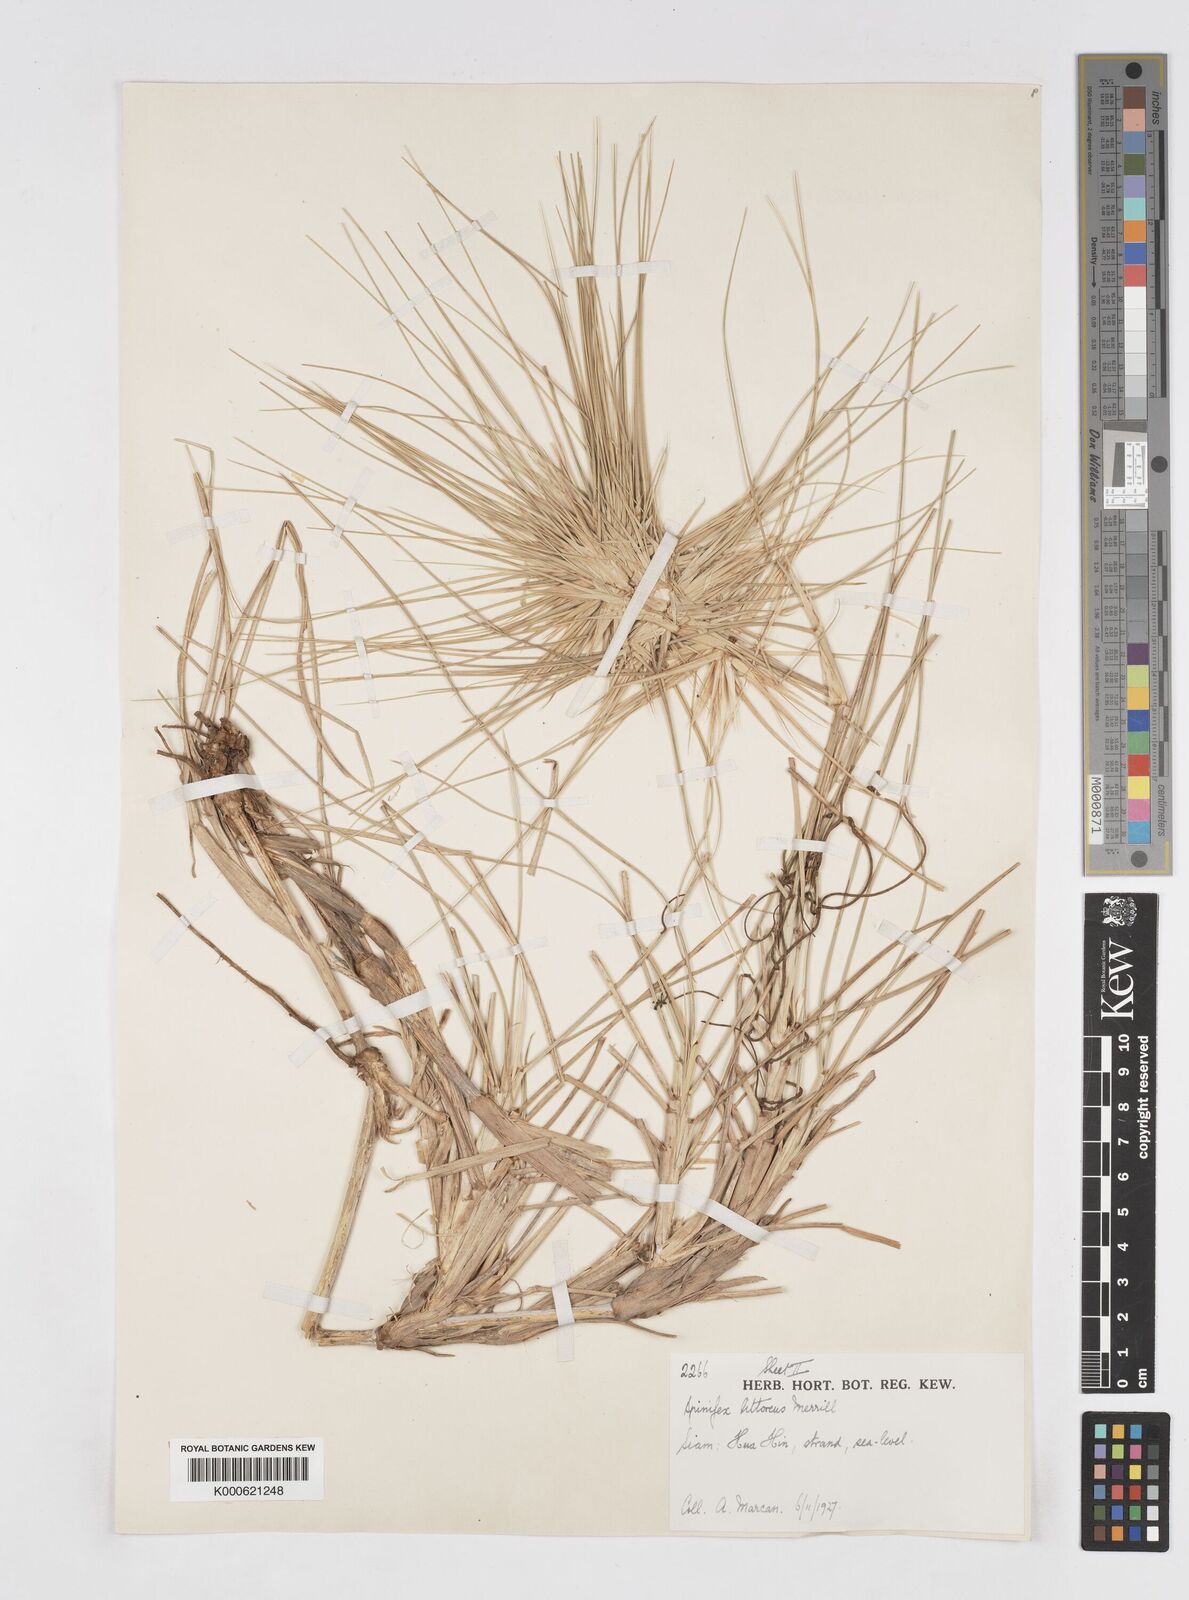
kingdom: Plantae
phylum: Tracheophyta
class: Liliopsida
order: Poales
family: Poaceae
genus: Spinifex
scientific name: Spinifex littoreus
